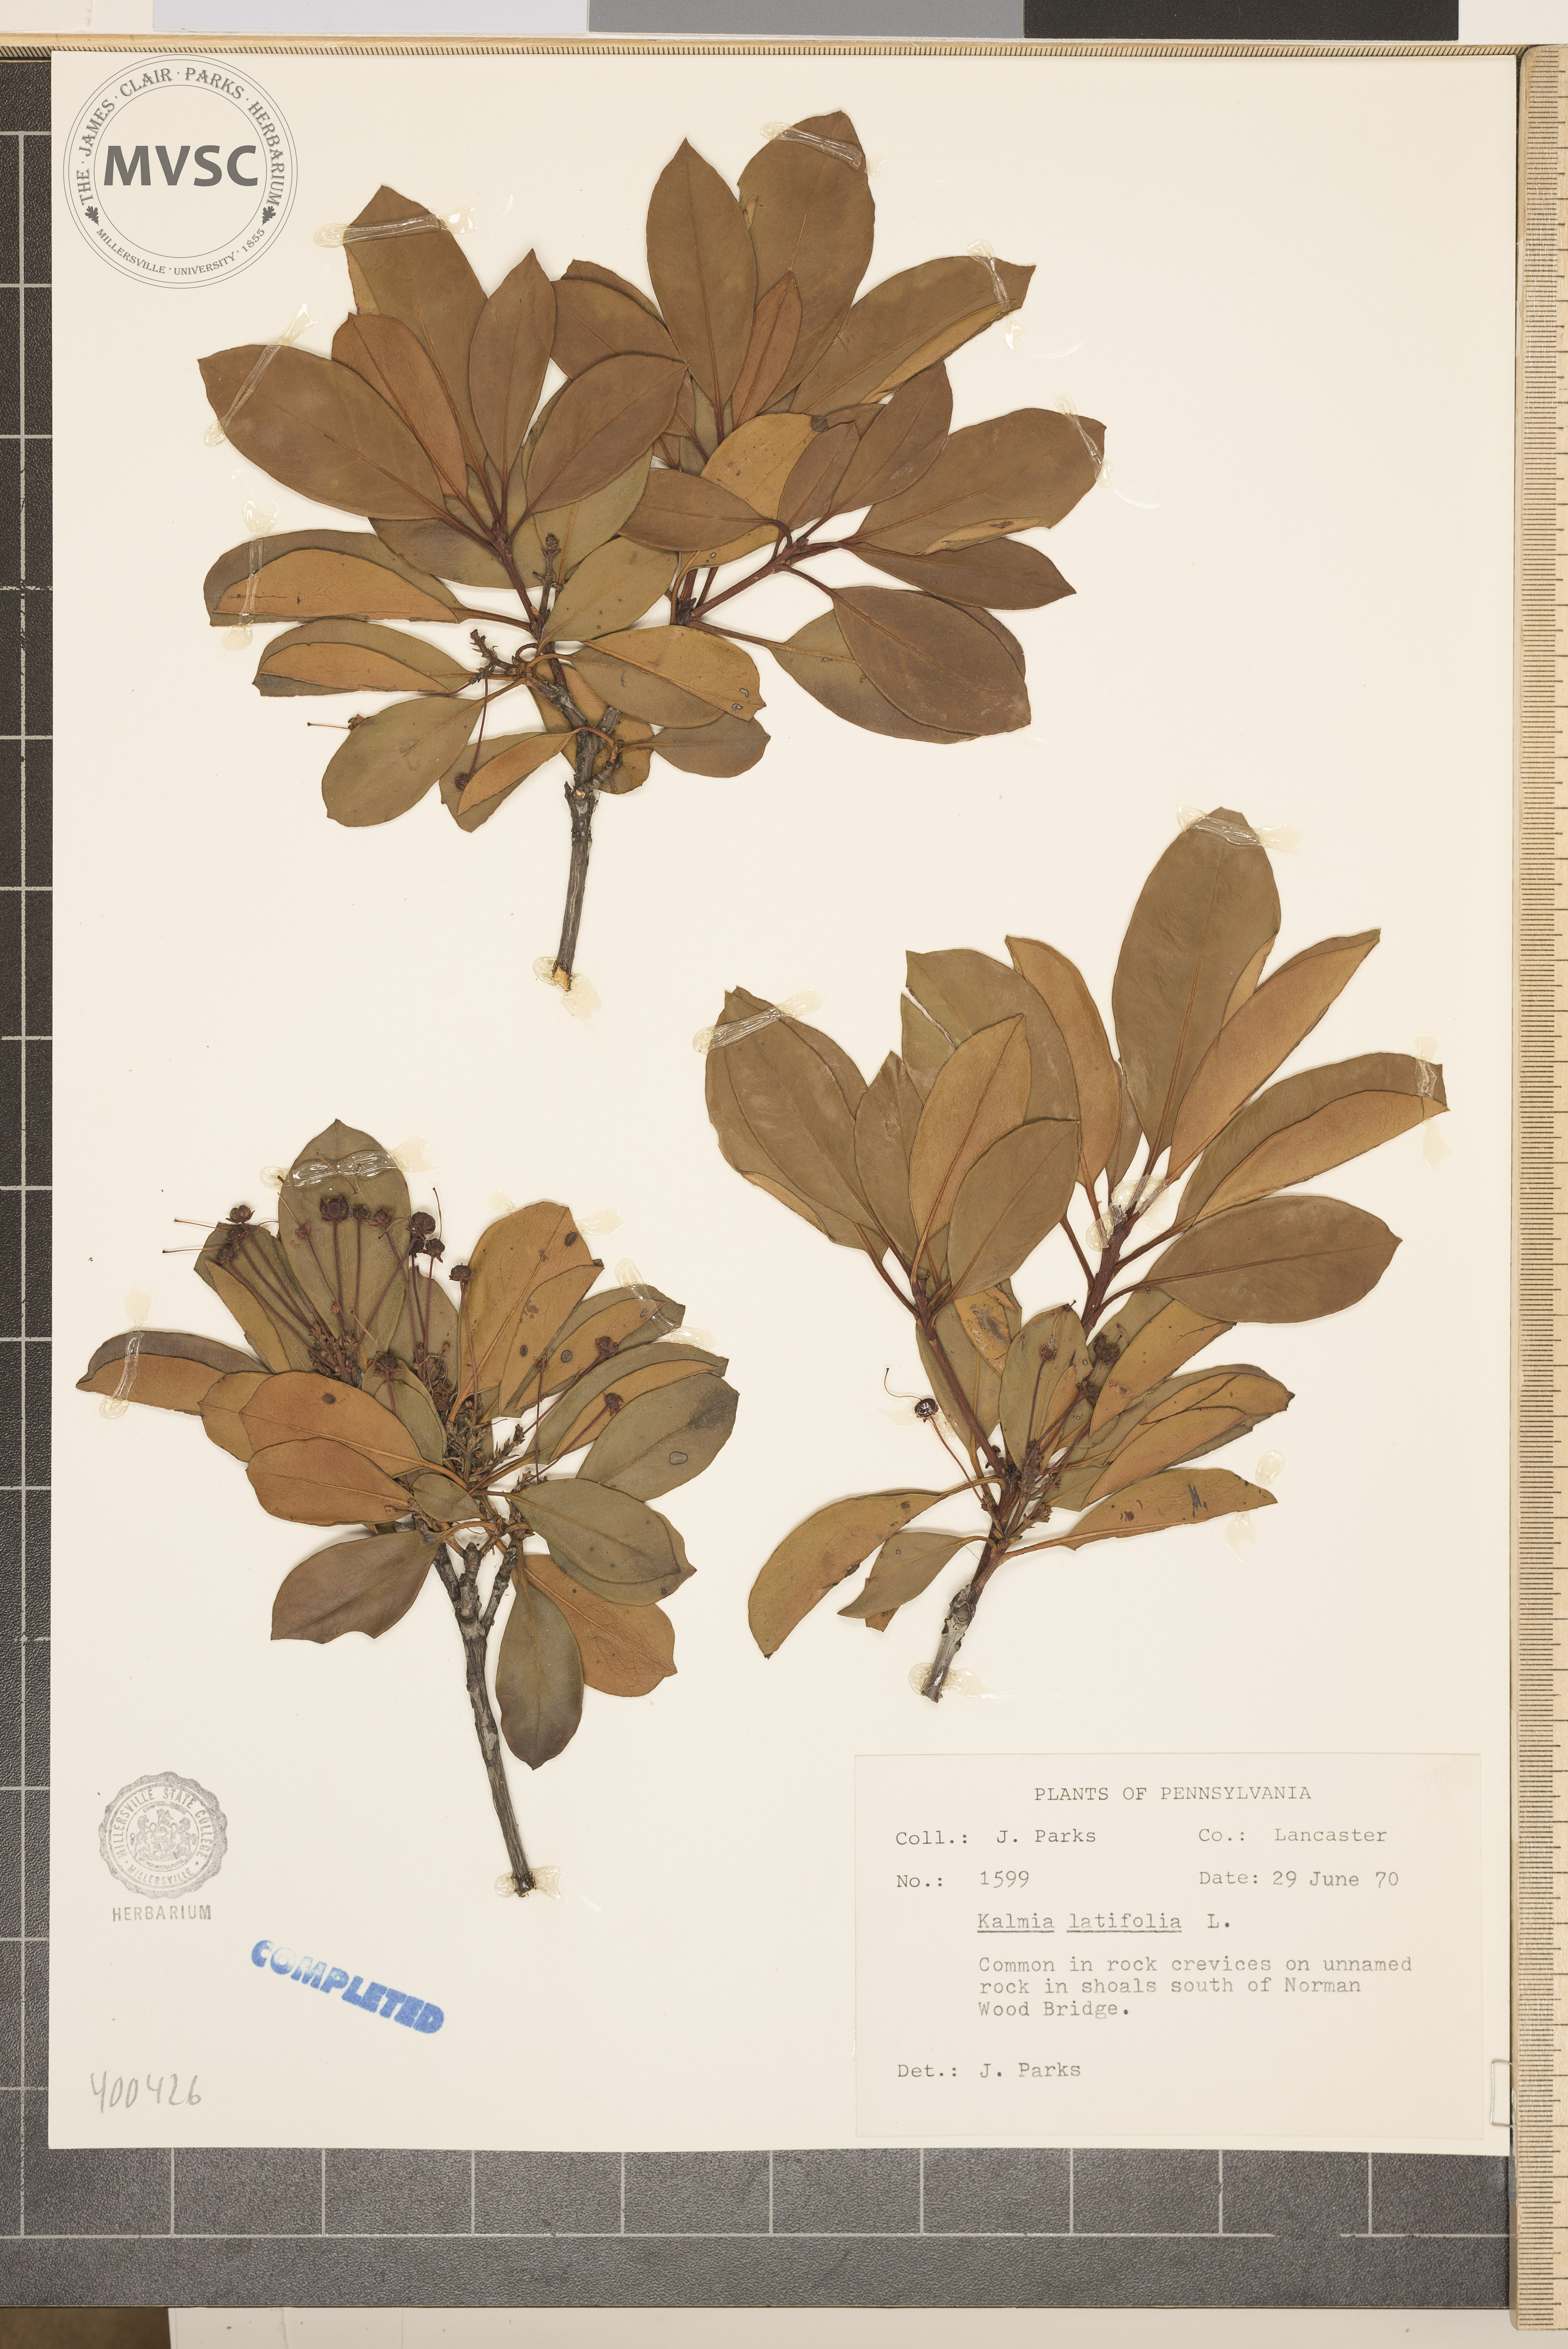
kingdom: Plantae
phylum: Tracheophyta
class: Magnoliopsida
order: Ericales
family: Ericaceae
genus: Kalmia
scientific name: Kalmia latifolia
